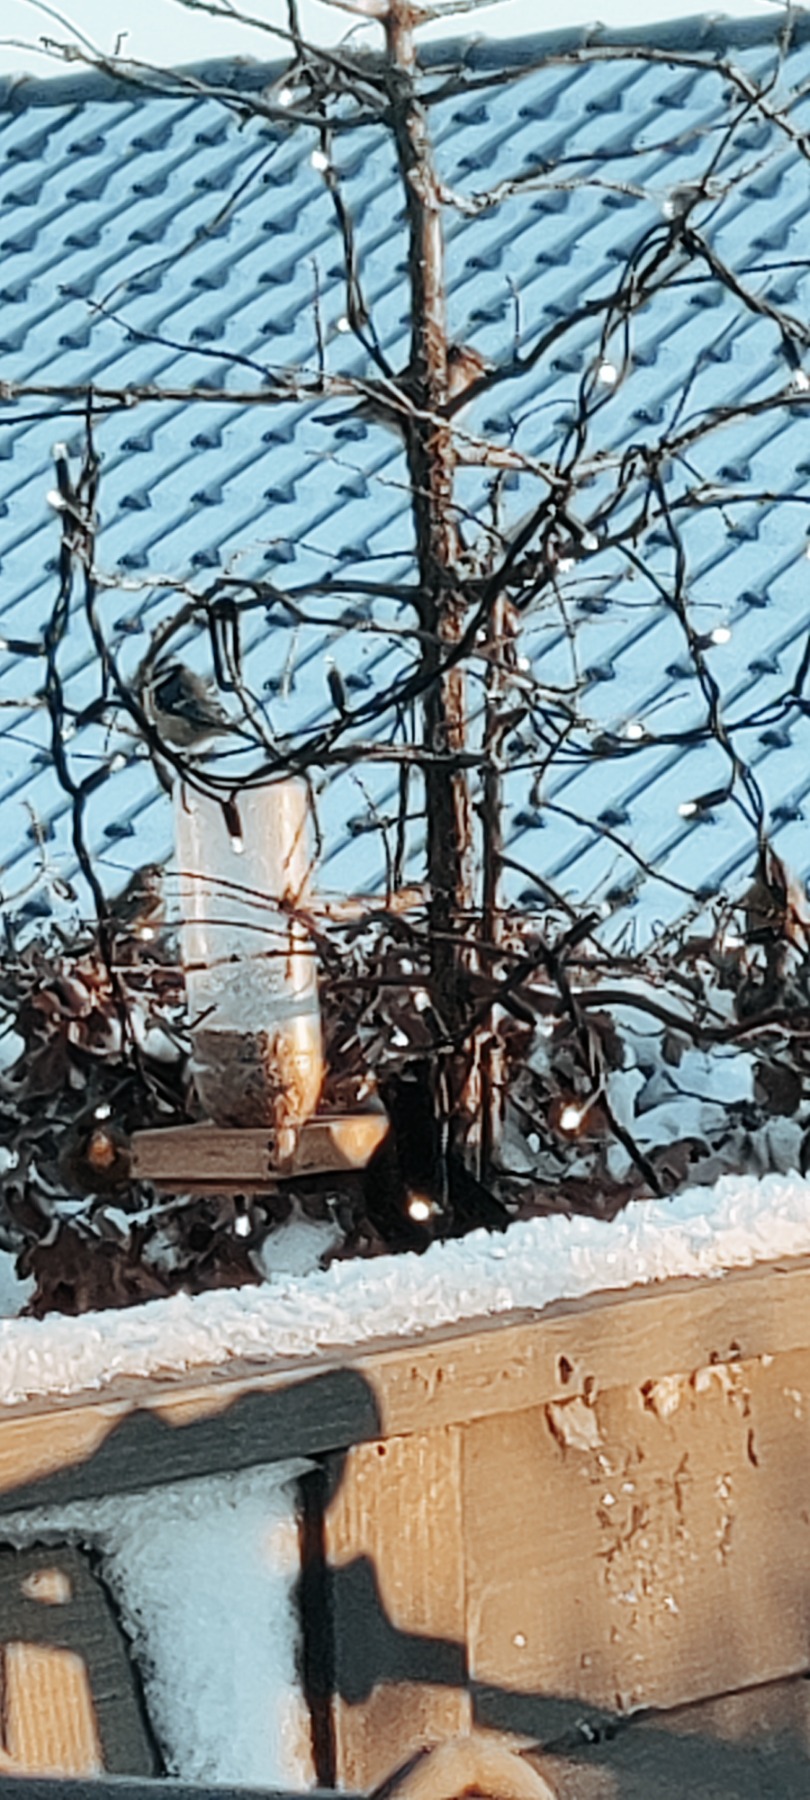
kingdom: Animalia
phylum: Chordata
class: Aves
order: Passeriformes
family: Passeridae
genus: Passer
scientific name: Passer domesticus
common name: Gråspurv
